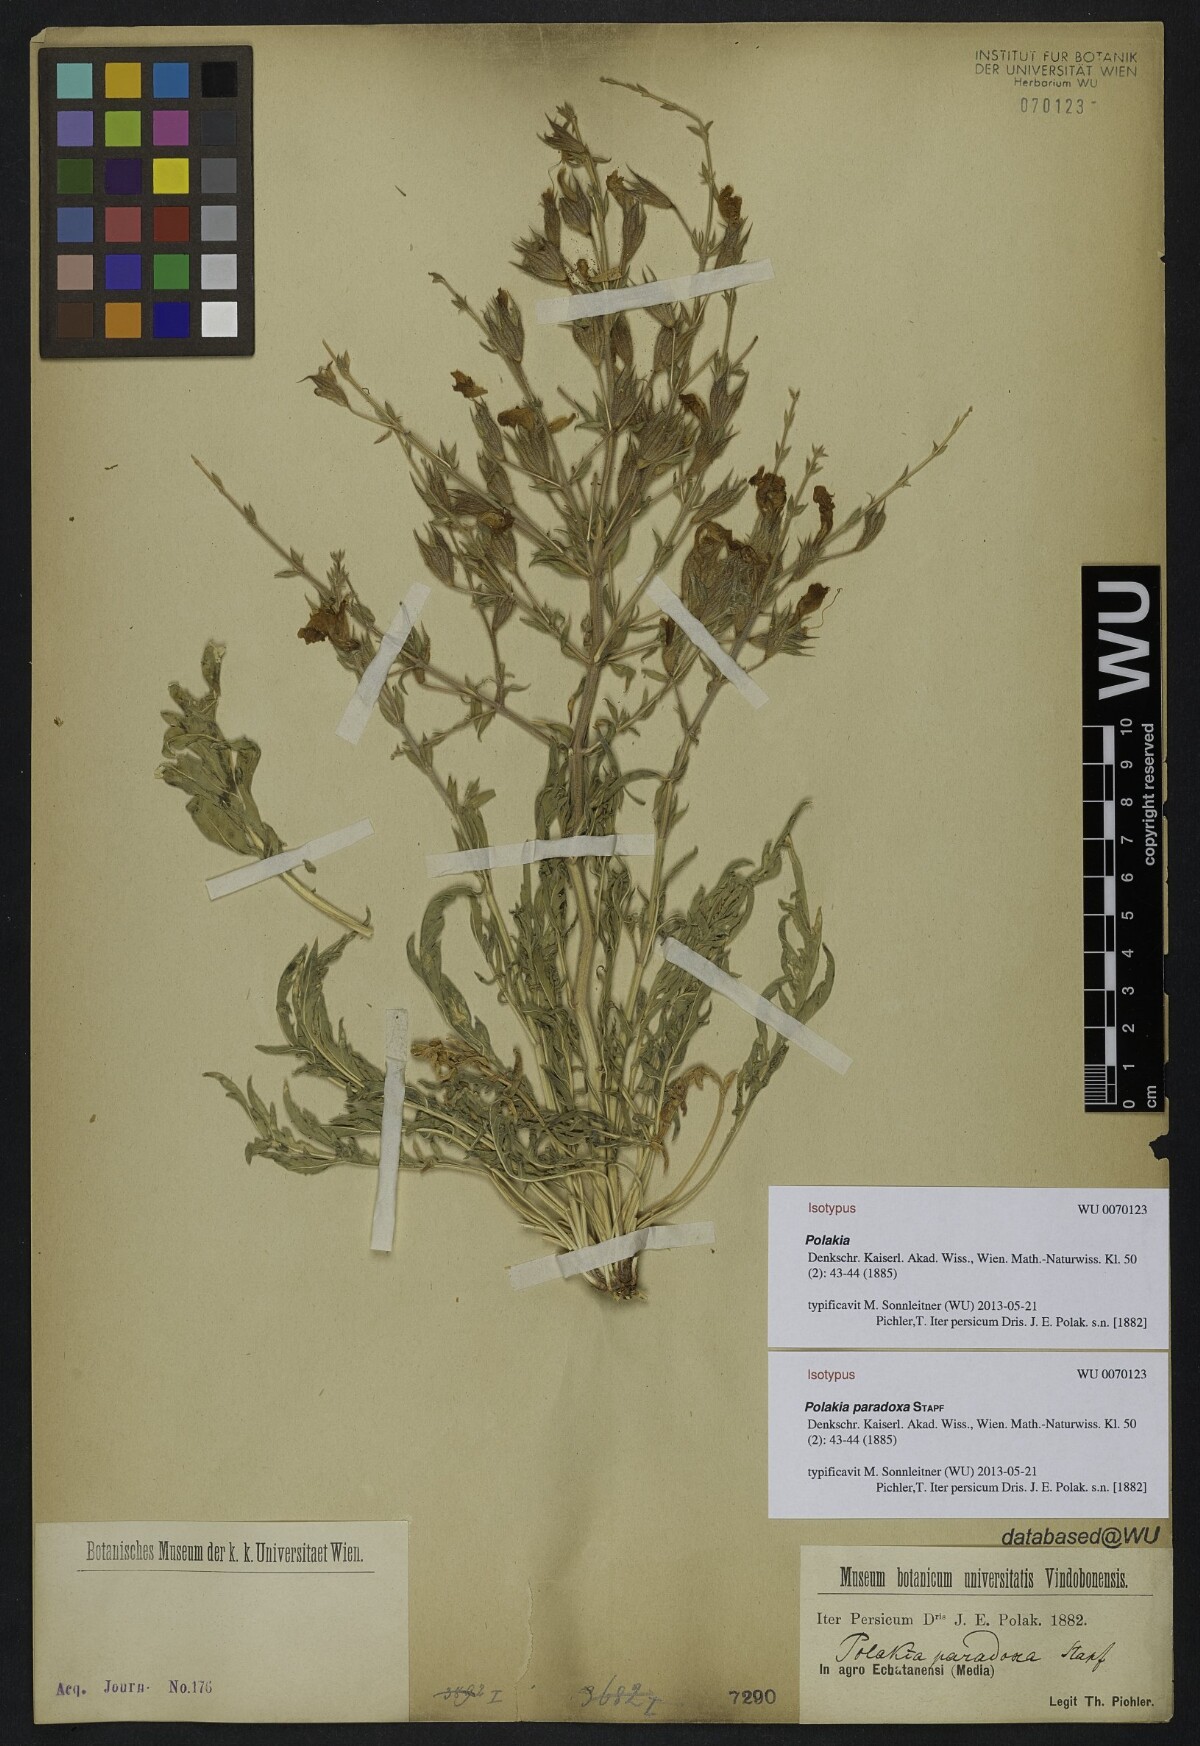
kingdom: Plantae
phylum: Tracheophyta
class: Magnoliopsida
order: Lamiales
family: Lamiaceae
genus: Salvia
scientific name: Salvia aristata
